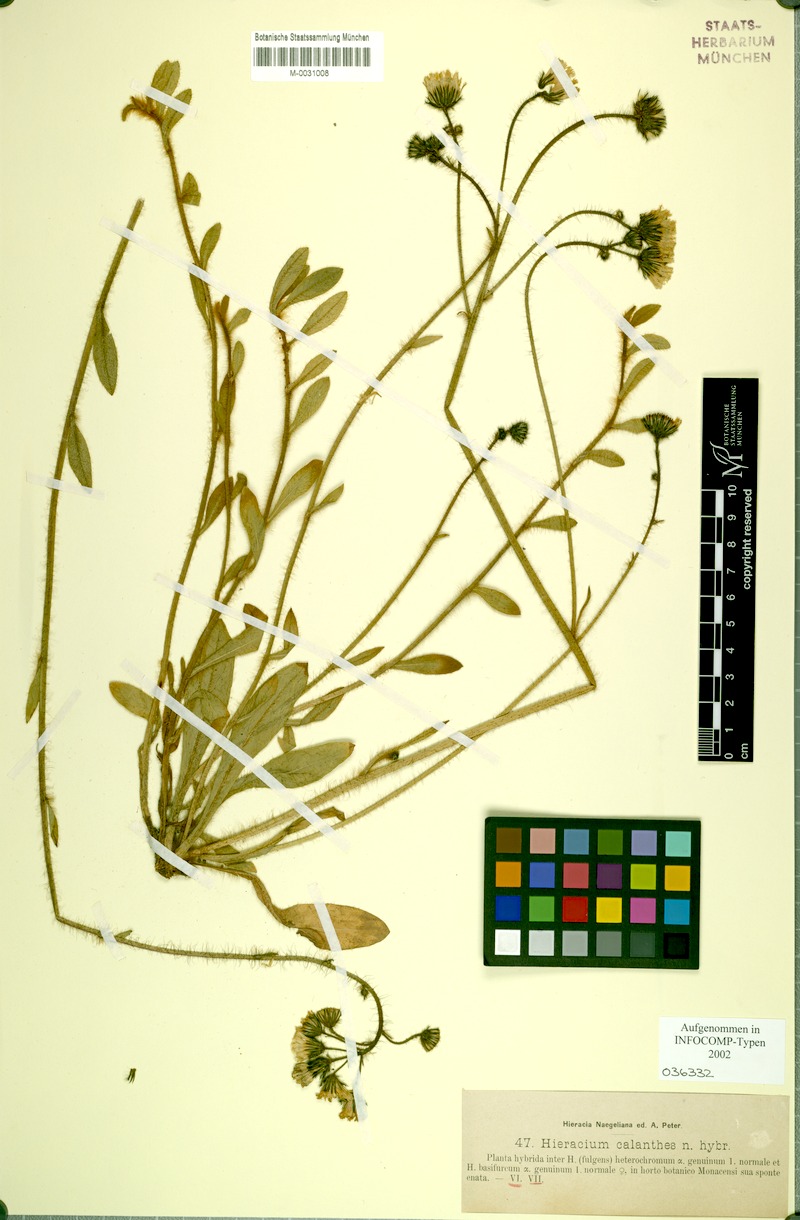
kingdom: Plantae
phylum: Tracheophyta
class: Magnoliopsida
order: Asterales
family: Asteraceae
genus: Hieracium
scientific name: Hieracium calanthes
